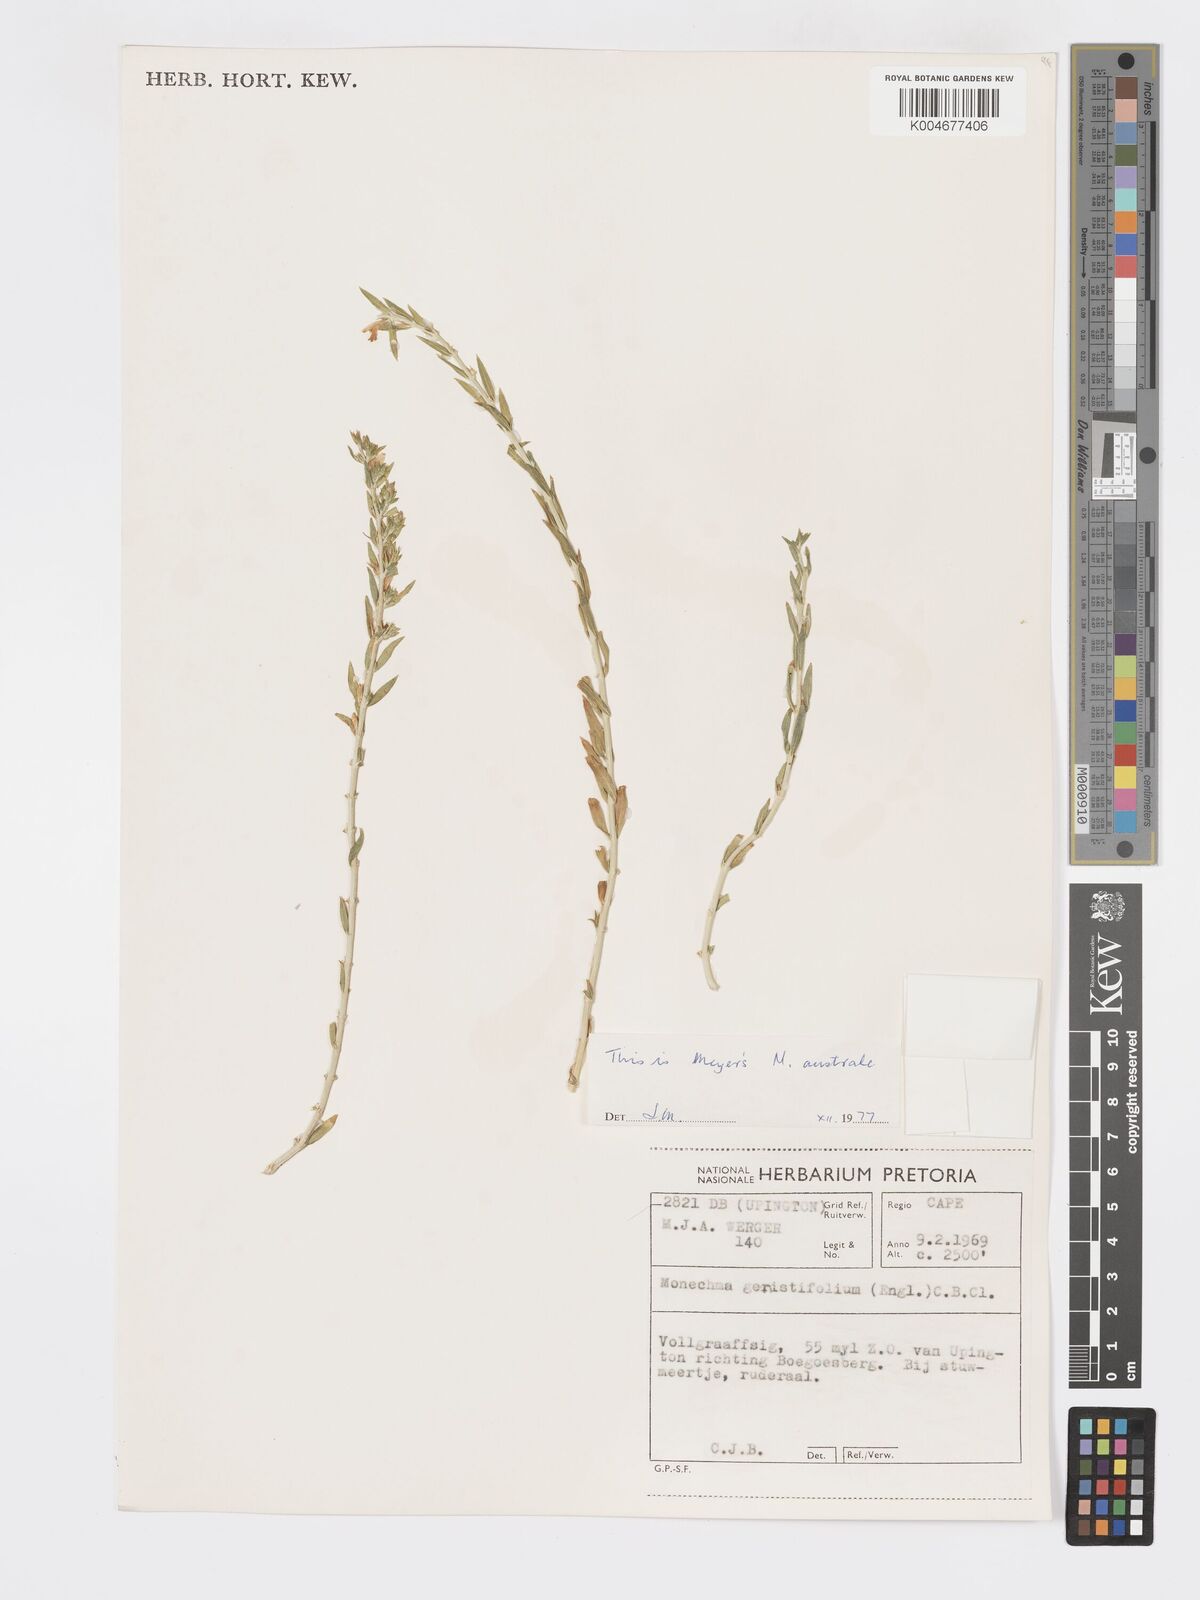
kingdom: Plantae
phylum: Tracheophyta
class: Magnoliopsida
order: Lamiales
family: Acanthaceae
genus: Pogonospermum
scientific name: Pogonospermum
